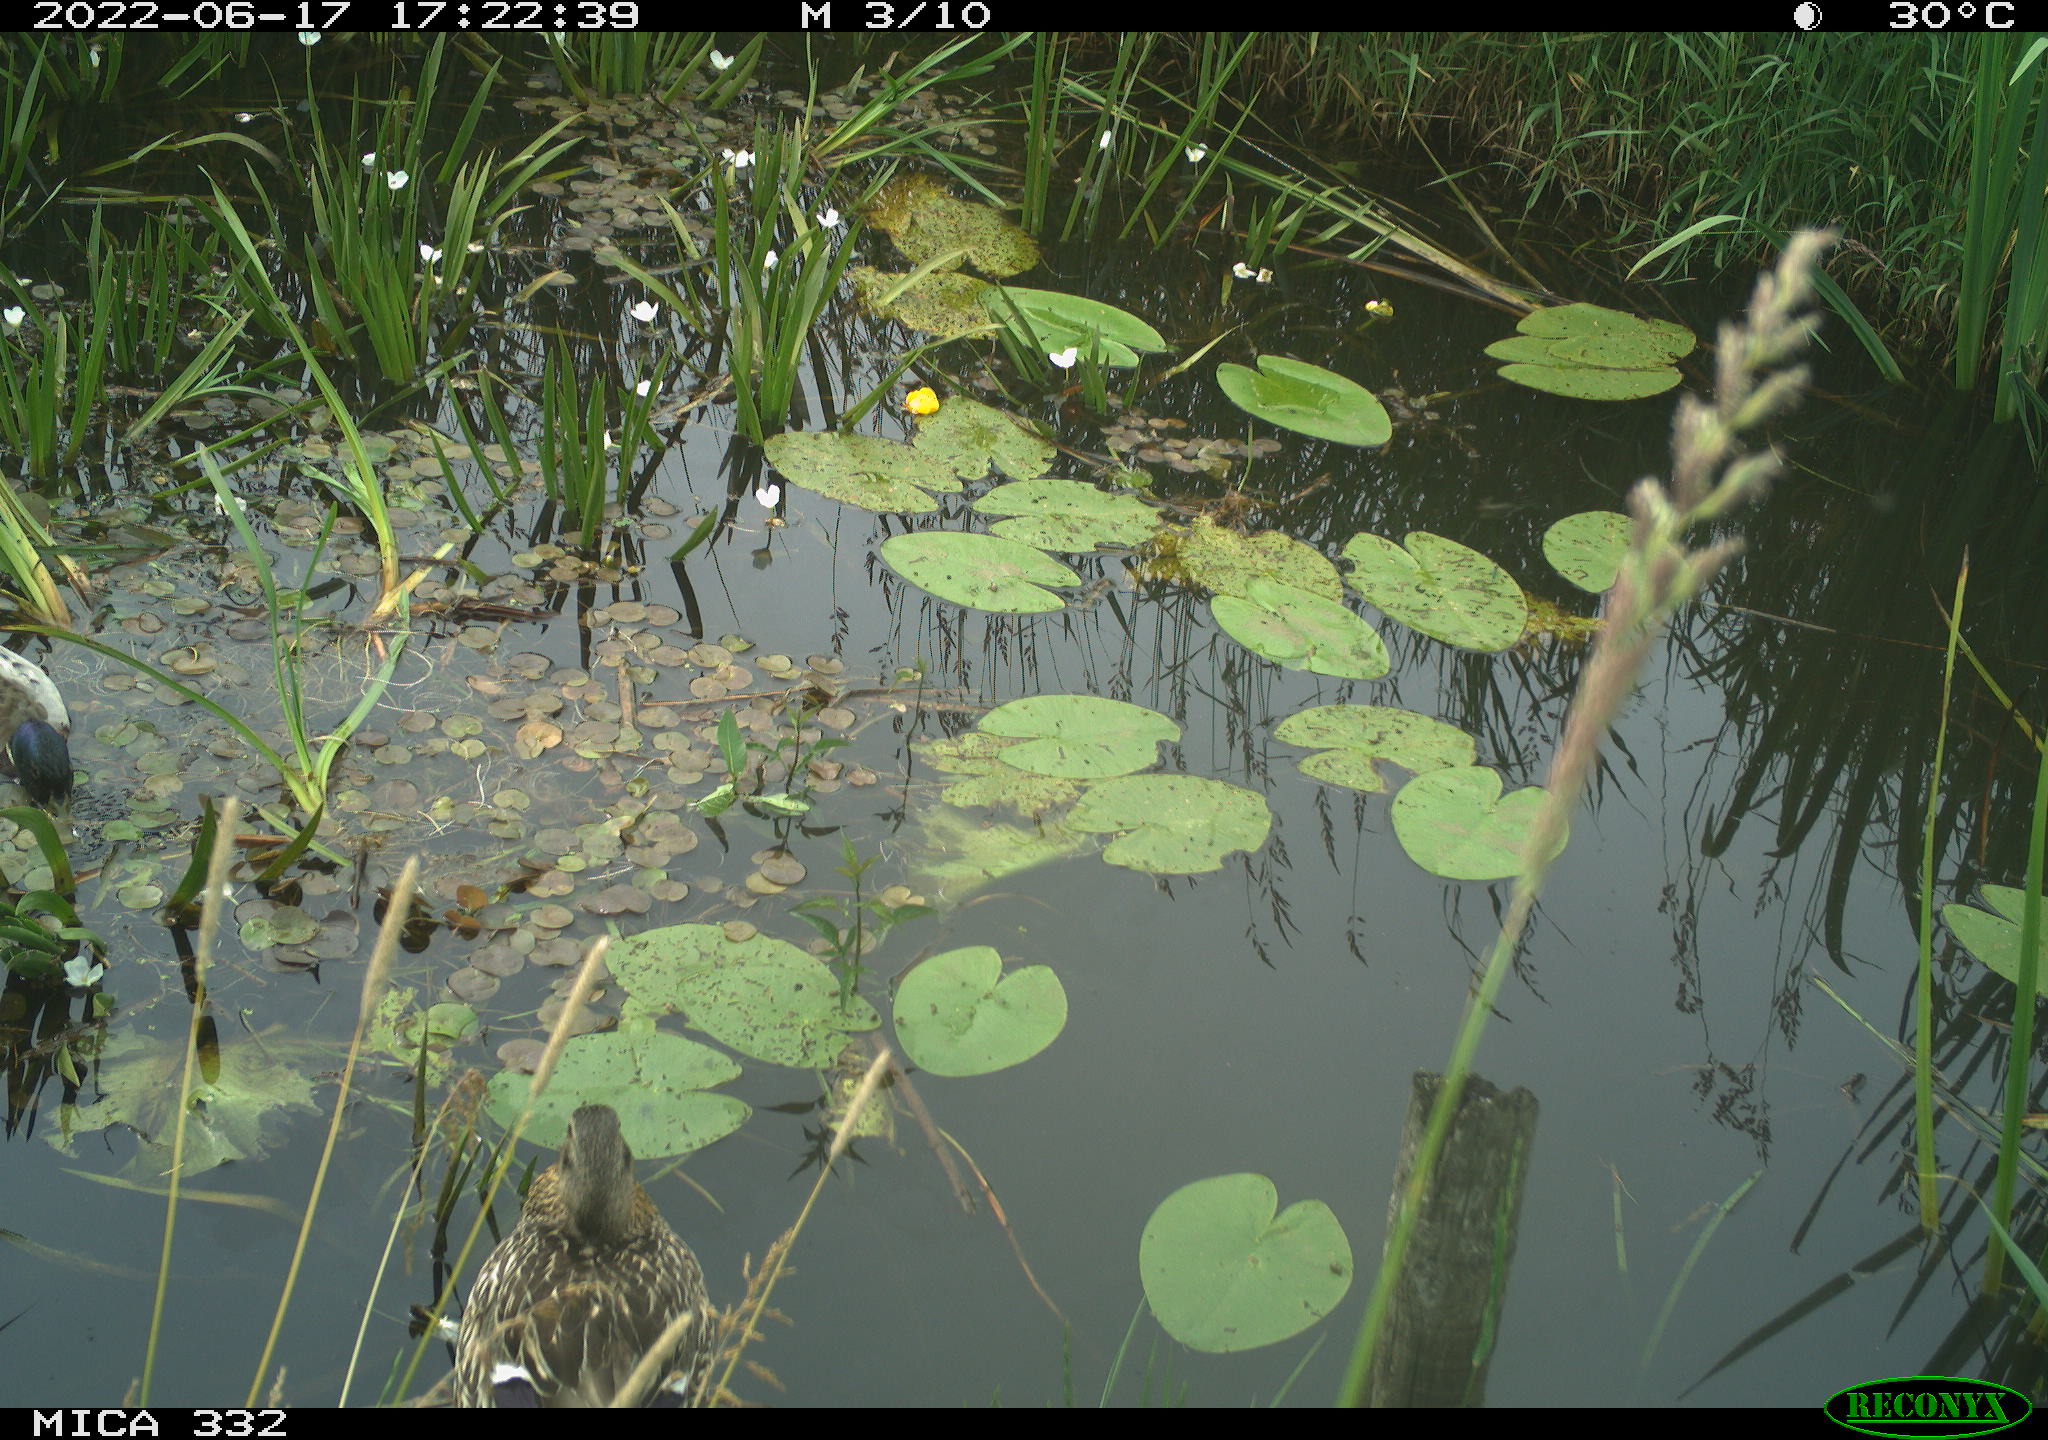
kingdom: Animalia
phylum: Chordata
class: Aves
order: Anseriformes
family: Anatidae
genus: Anas
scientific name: Anas platyrhynchos
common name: Mallard
